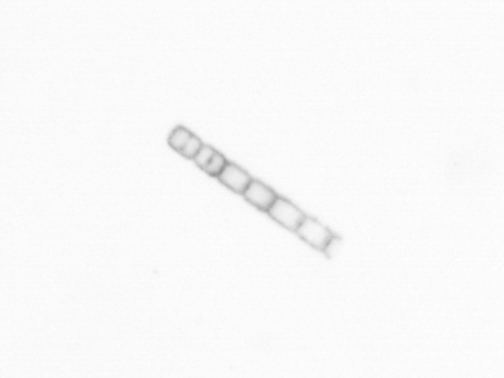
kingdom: Chromista
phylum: Ochrophyta
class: Bacillariophyceae
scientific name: Bacillariophyceae
